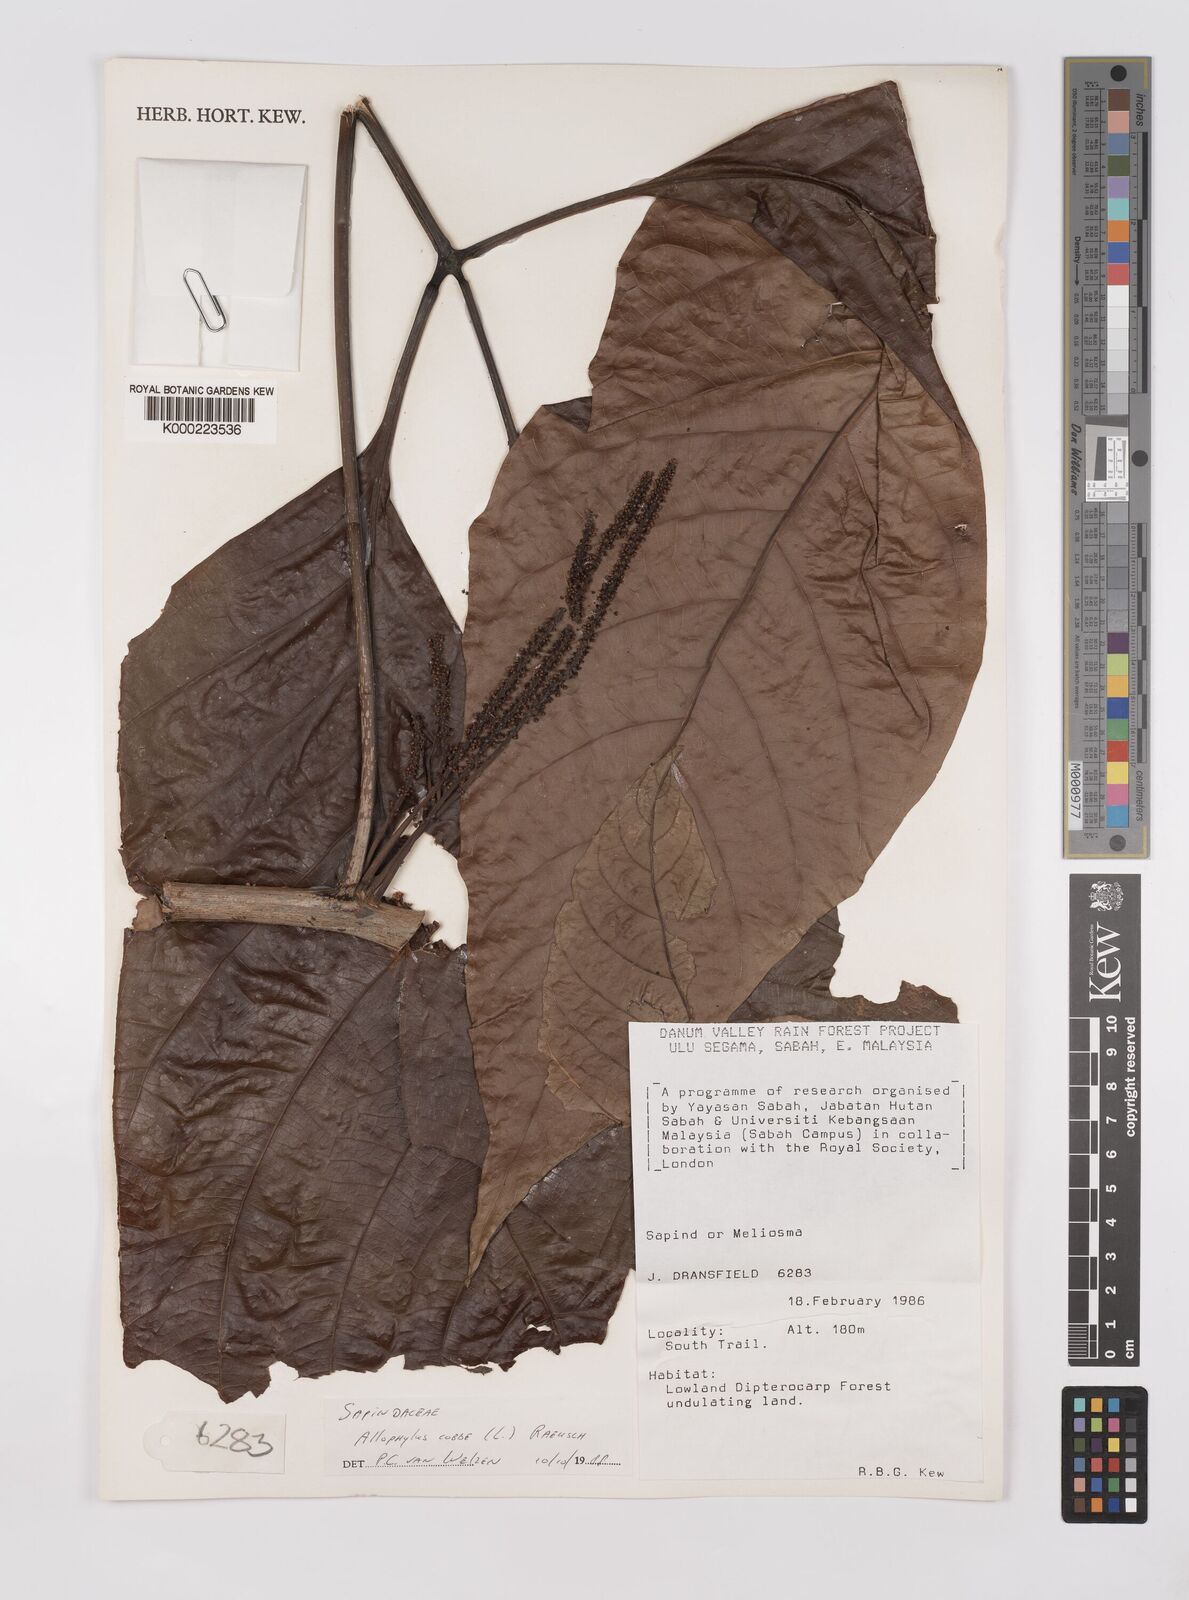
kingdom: Plantae
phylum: Tracheophyta
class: Magnoliopsida
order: Sapindales
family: Sapindaceae
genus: Allophylus
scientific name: Allophylus
